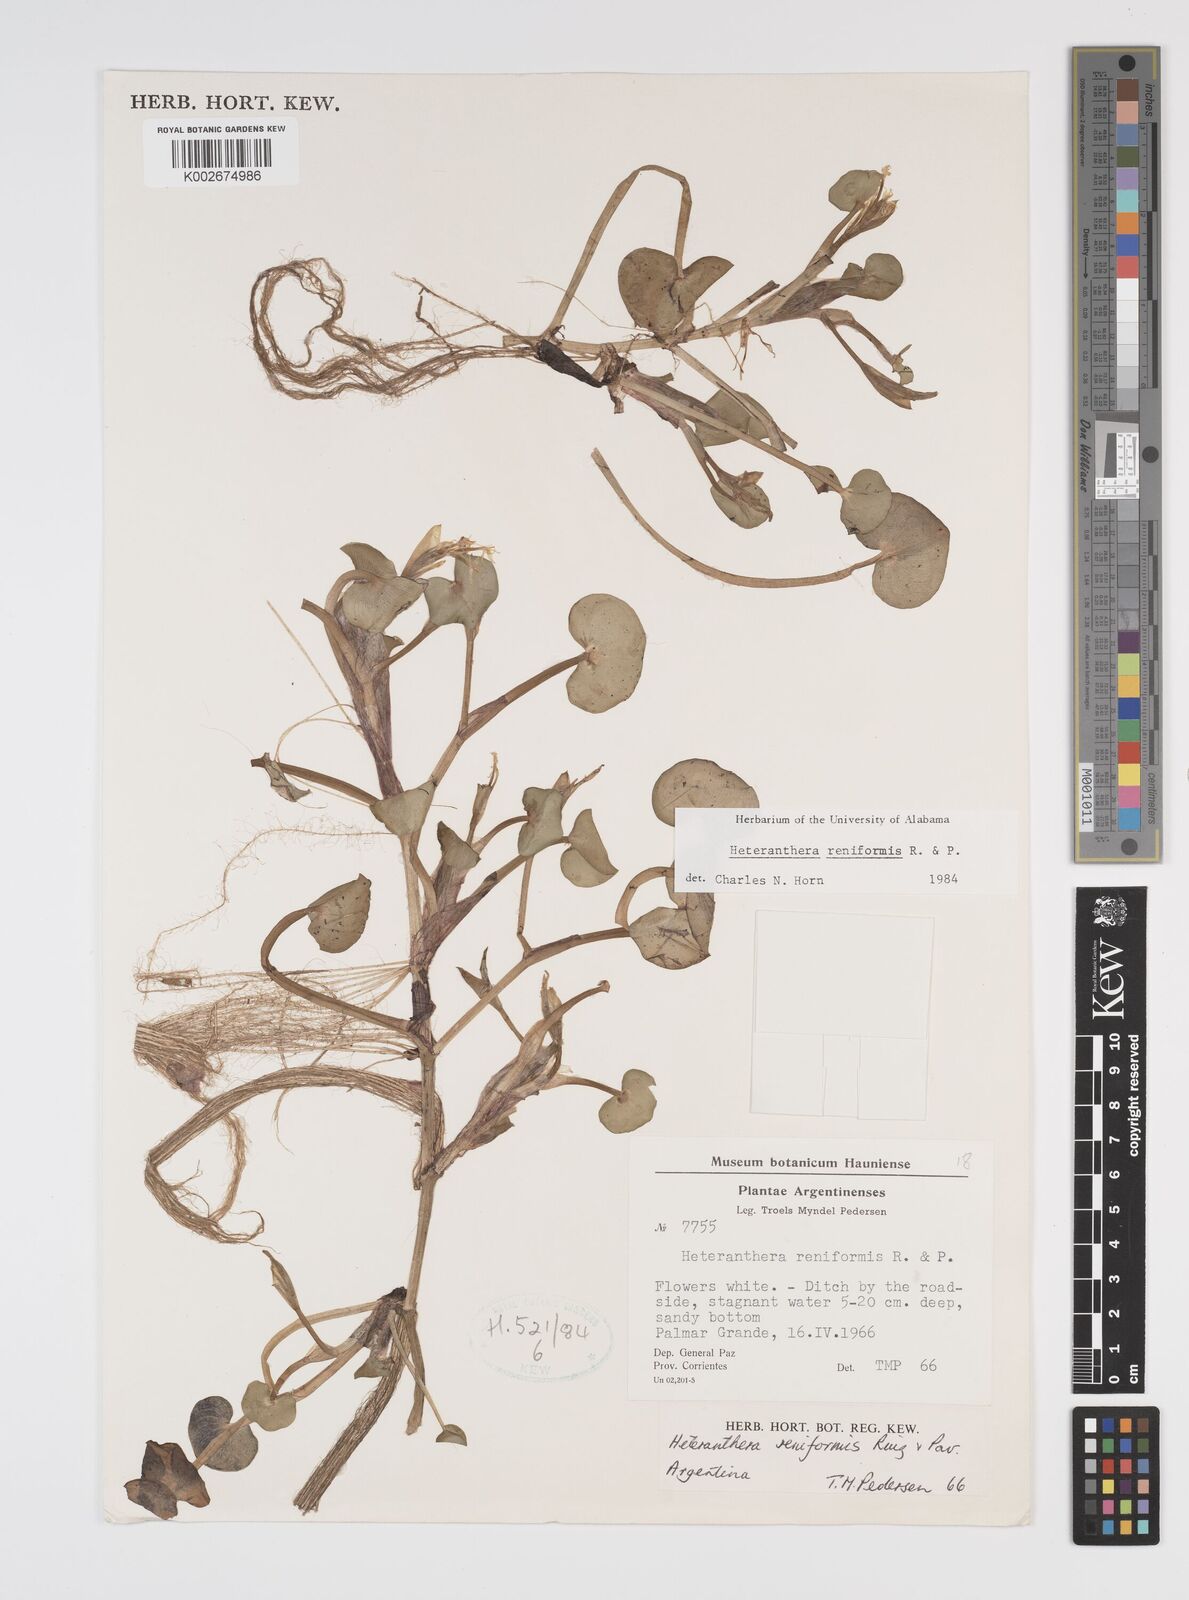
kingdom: Plantae
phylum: Tracheophyta
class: Liliopsida
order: Commelinales
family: Pontederiaceae
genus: Heteranthera
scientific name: Heteranthera reniformis
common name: Kidneyleaf mudplantain
